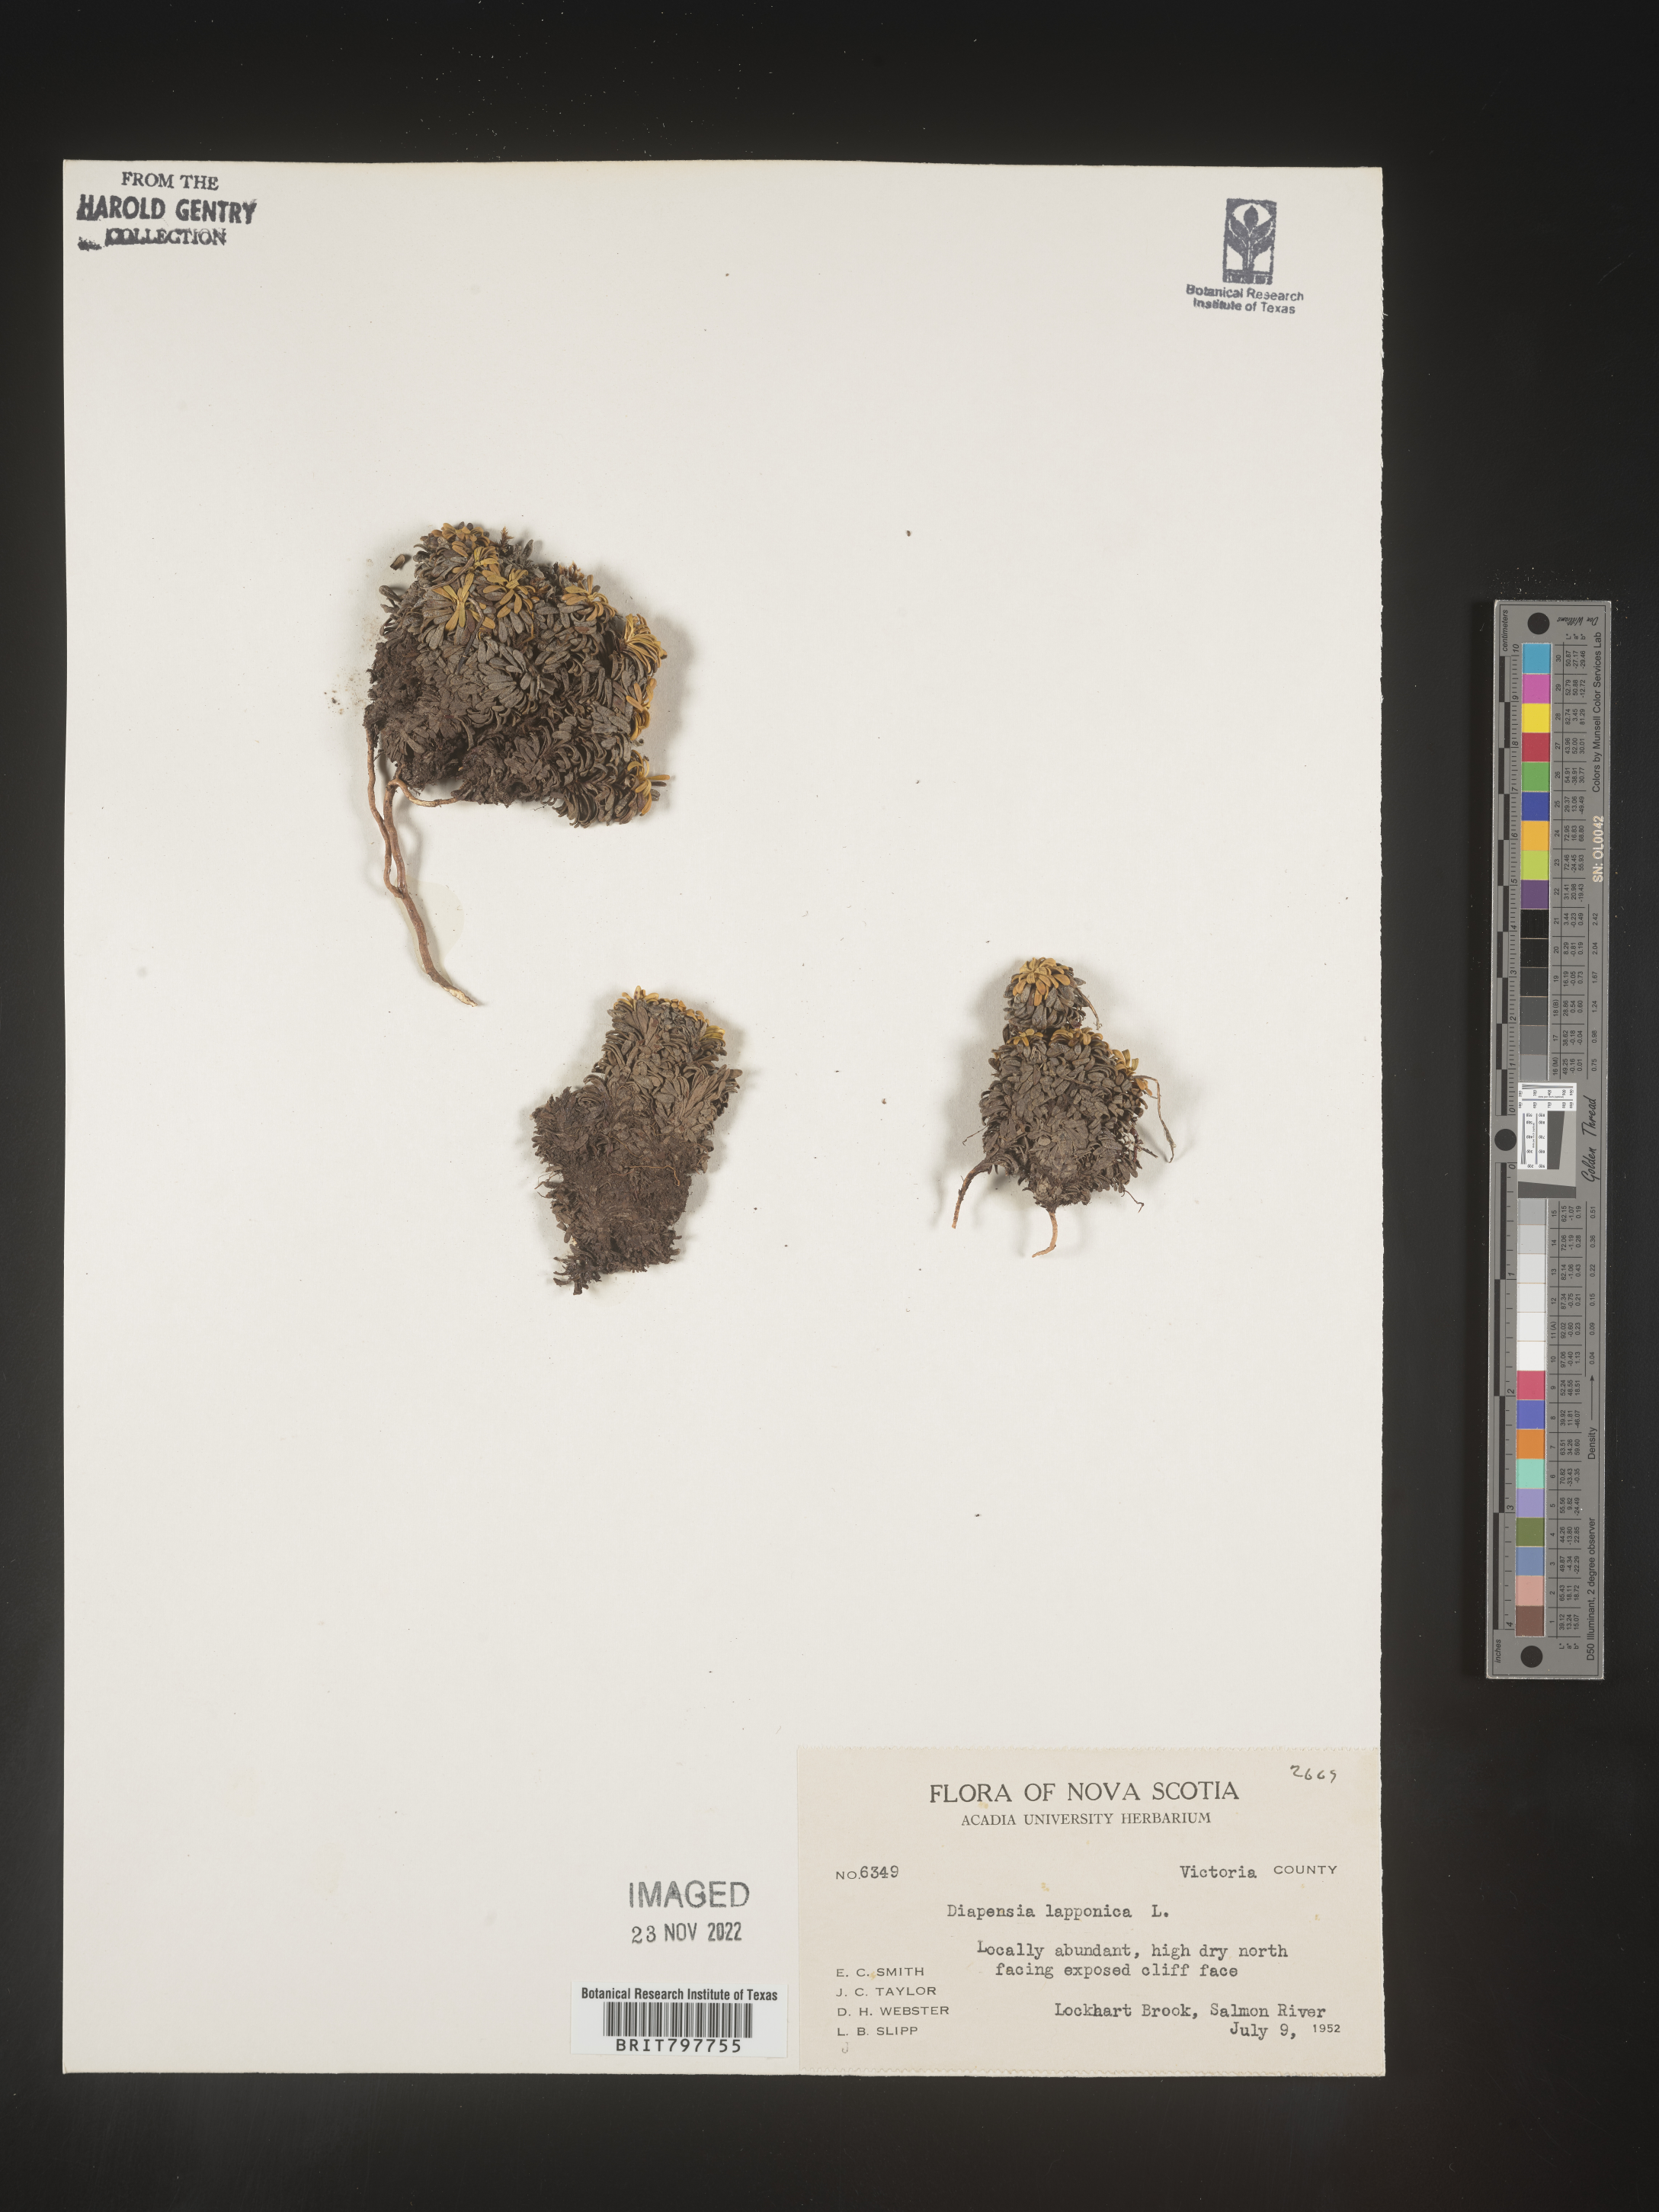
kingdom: Plantae
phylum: Tracheophyta
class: Magnoliopsida
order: Ericales
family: Diapensiaceae
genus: Diapensia
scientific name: Diapensia
